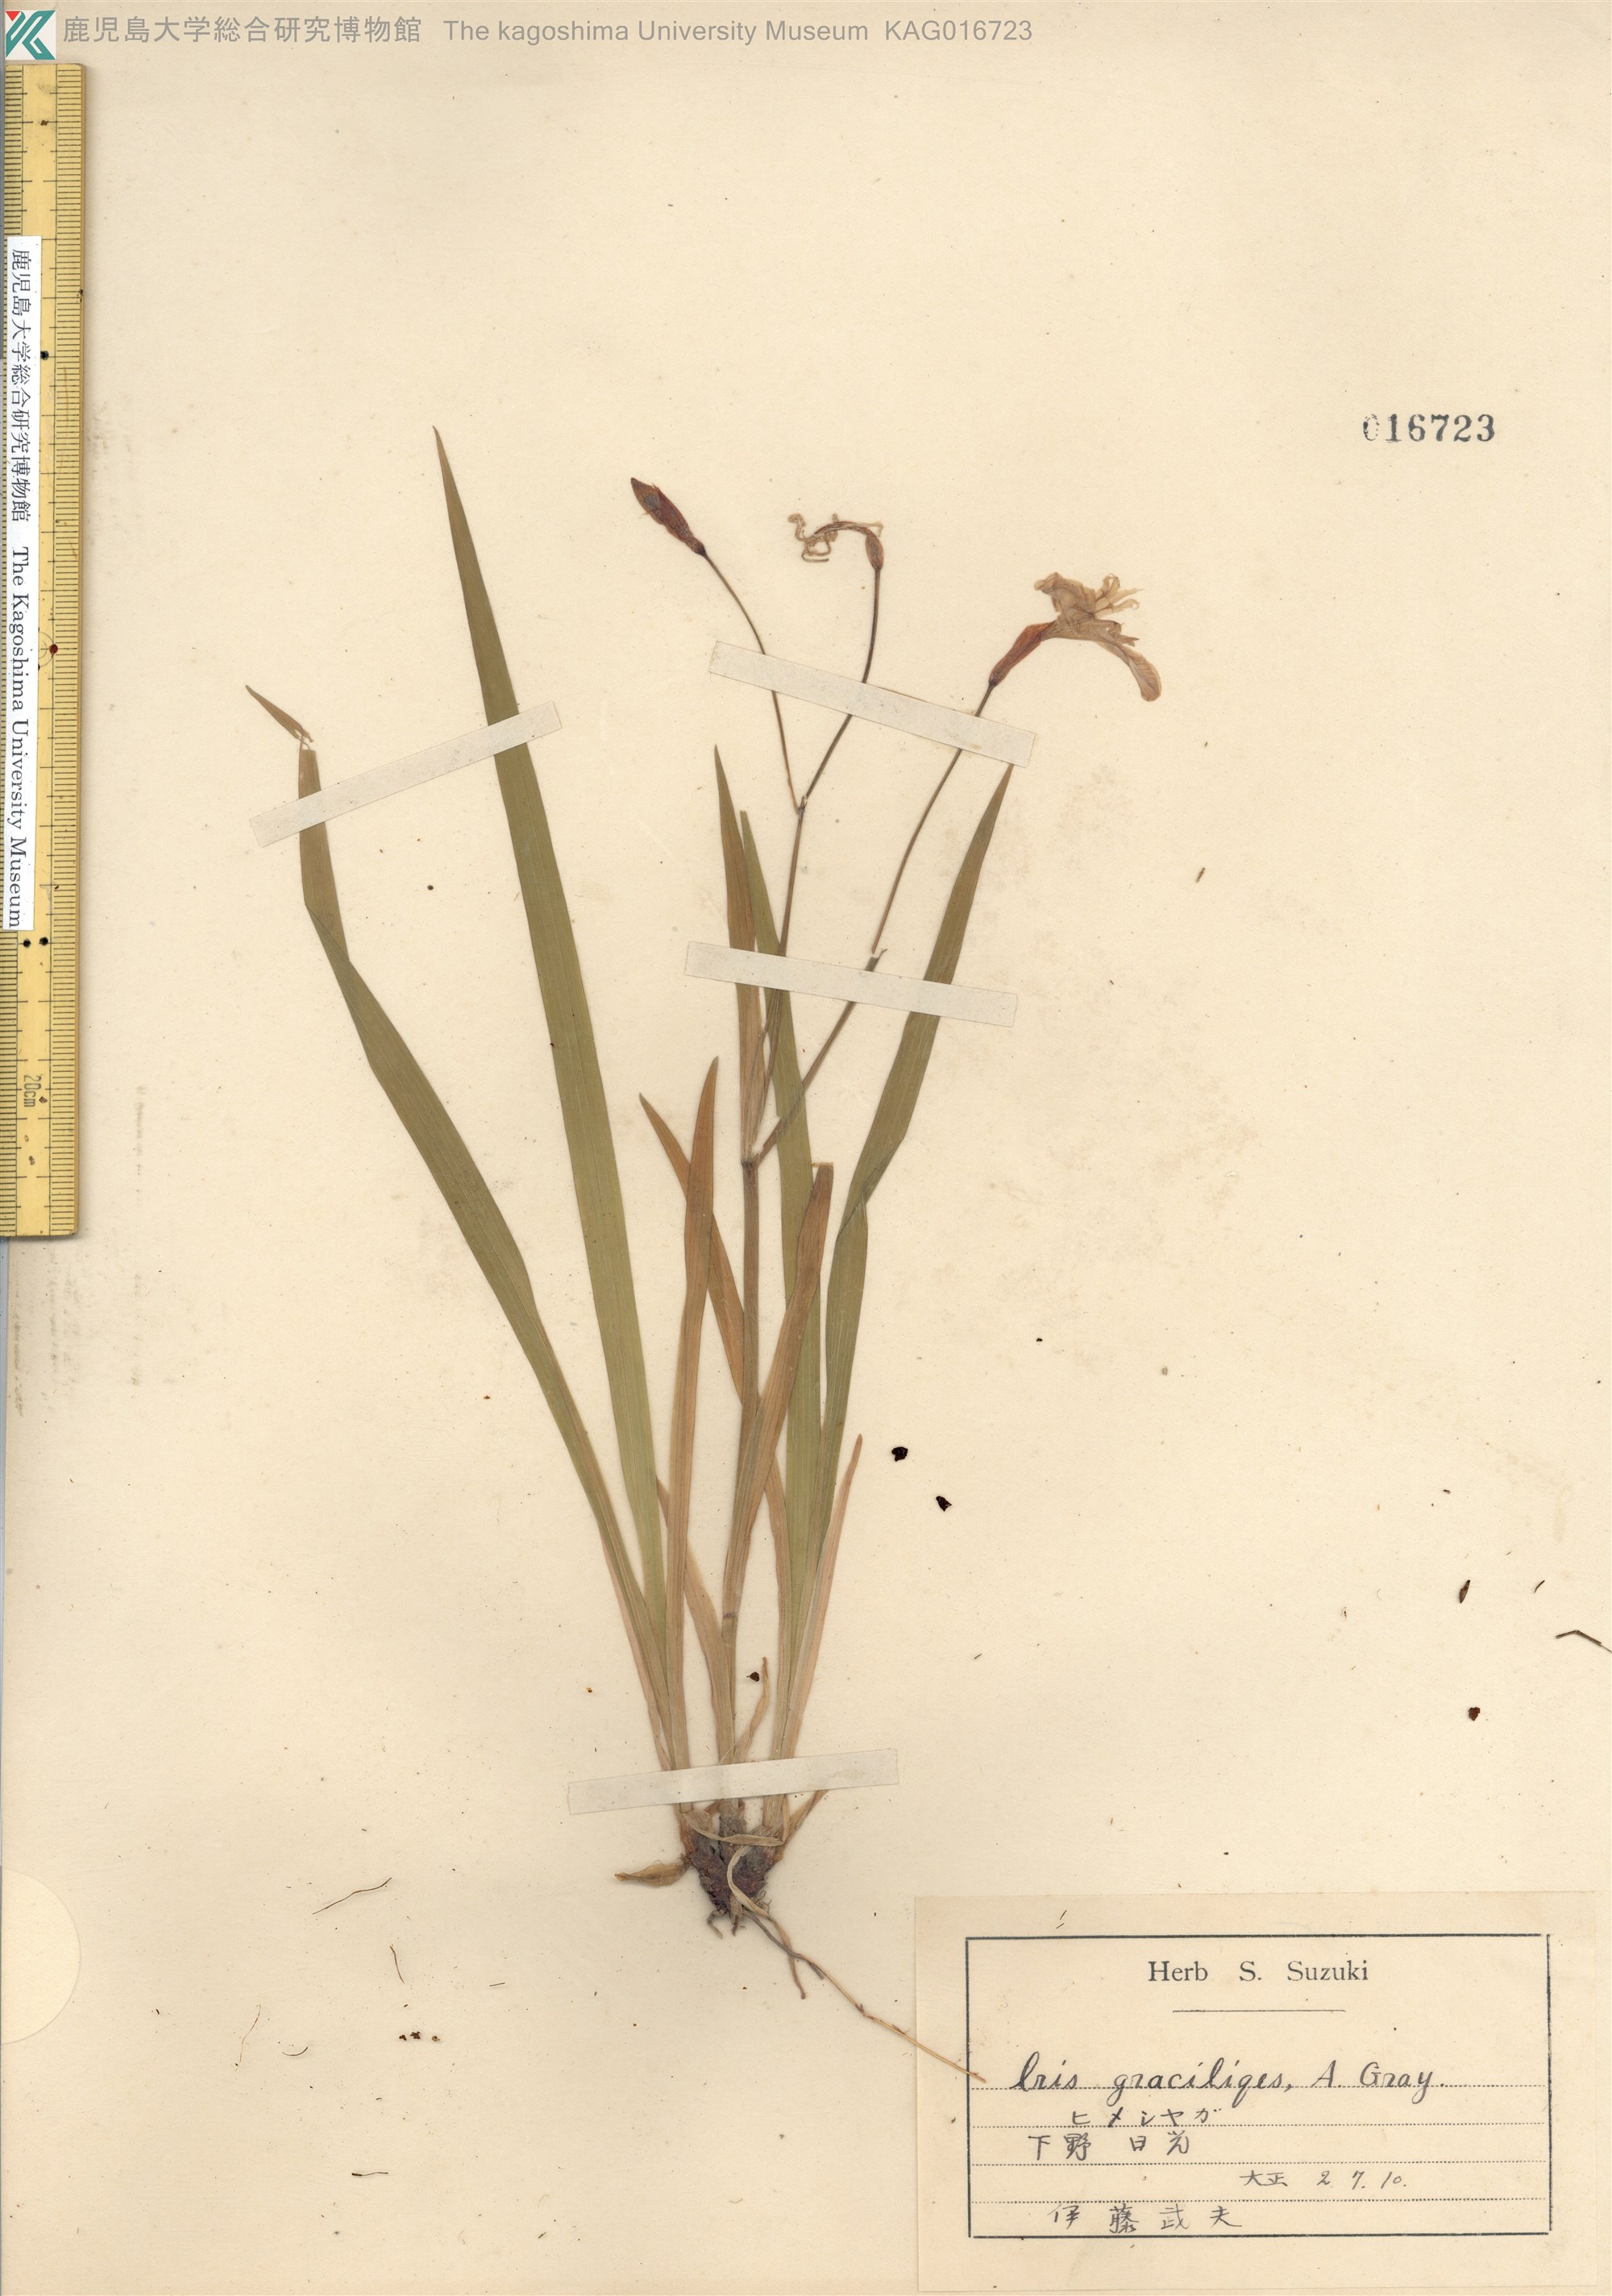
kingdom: Plantae
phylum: Tracheophyta
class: Liliopsida
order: Asparagales
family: Iridaceae
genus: Iris
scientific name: Iris gracilipes
